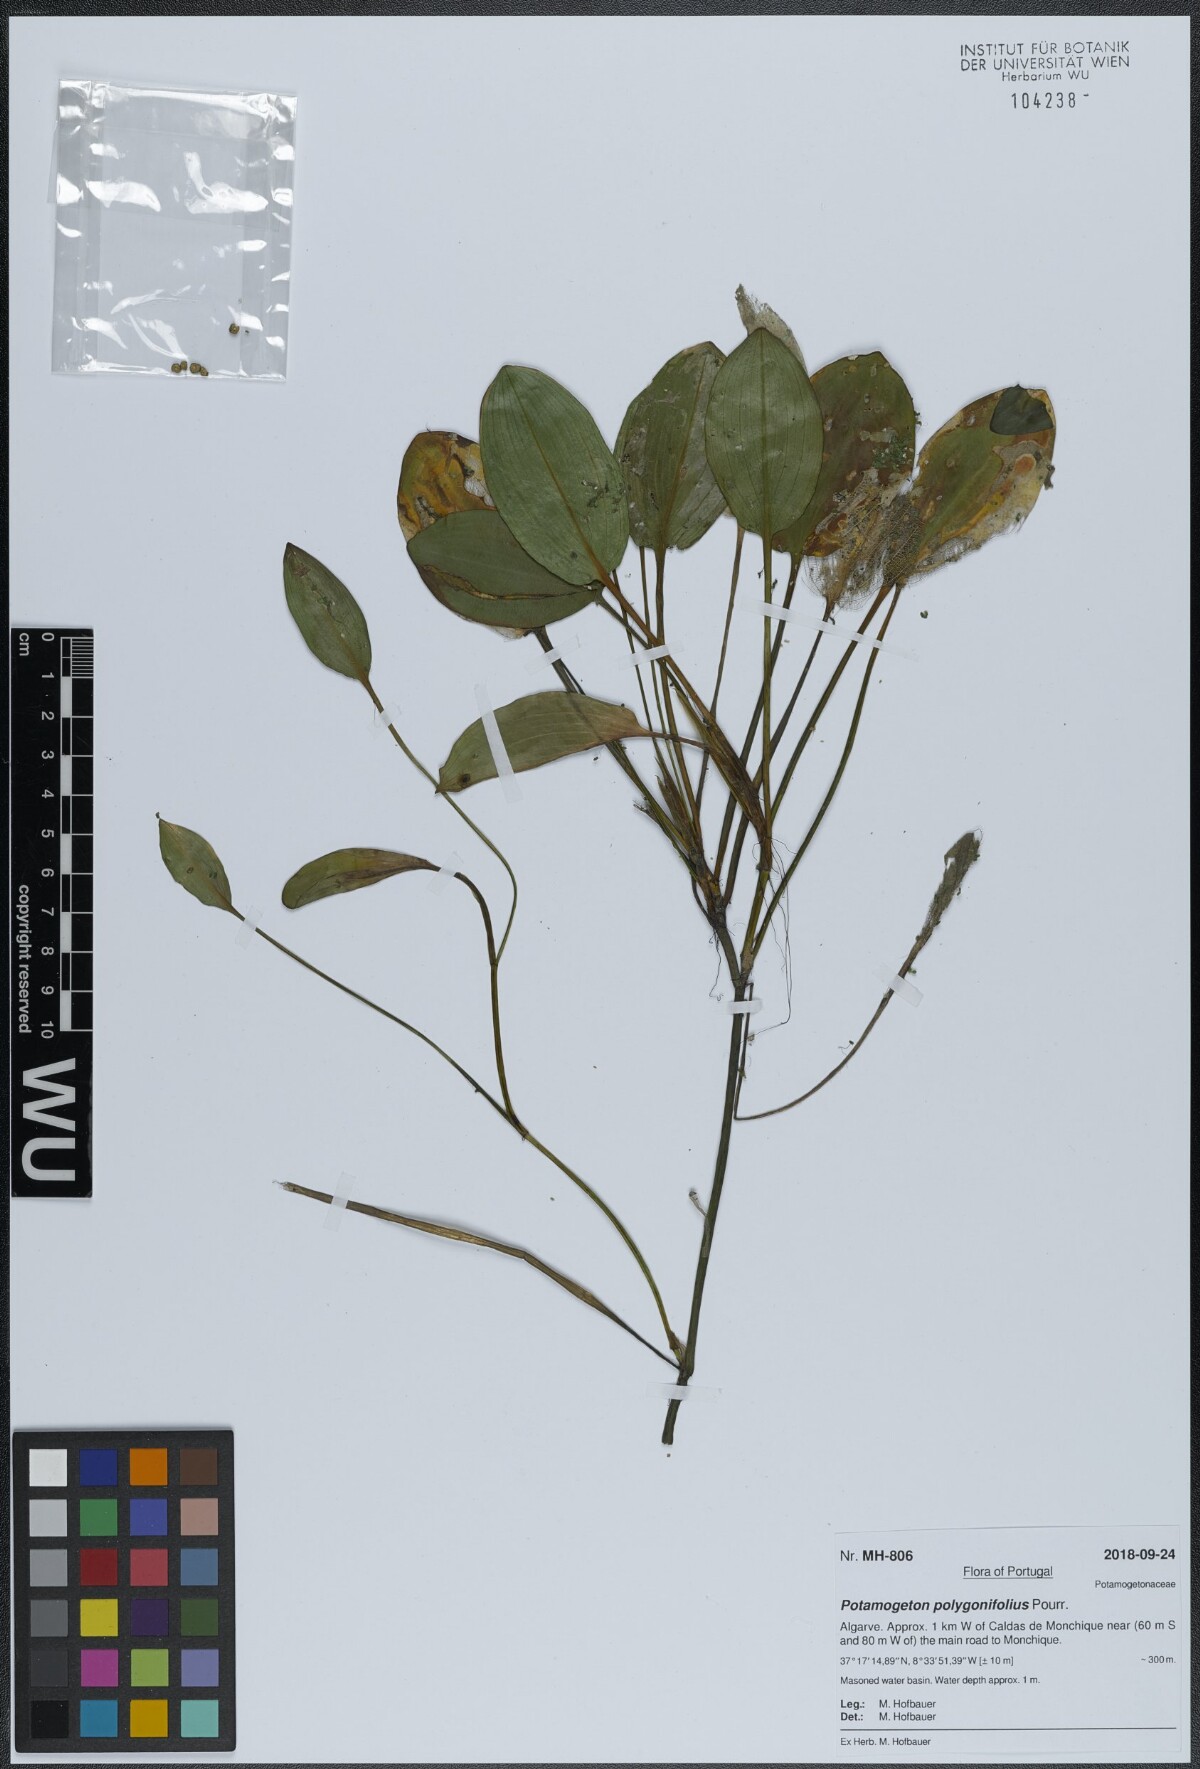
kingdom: Plantae
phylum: Tracheophyta
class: Liliopsida
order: Alismatales
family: Potamogetonaceae
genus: Potamogeton
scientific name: Potamogeton polygonifolius
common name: Bog pondweed
